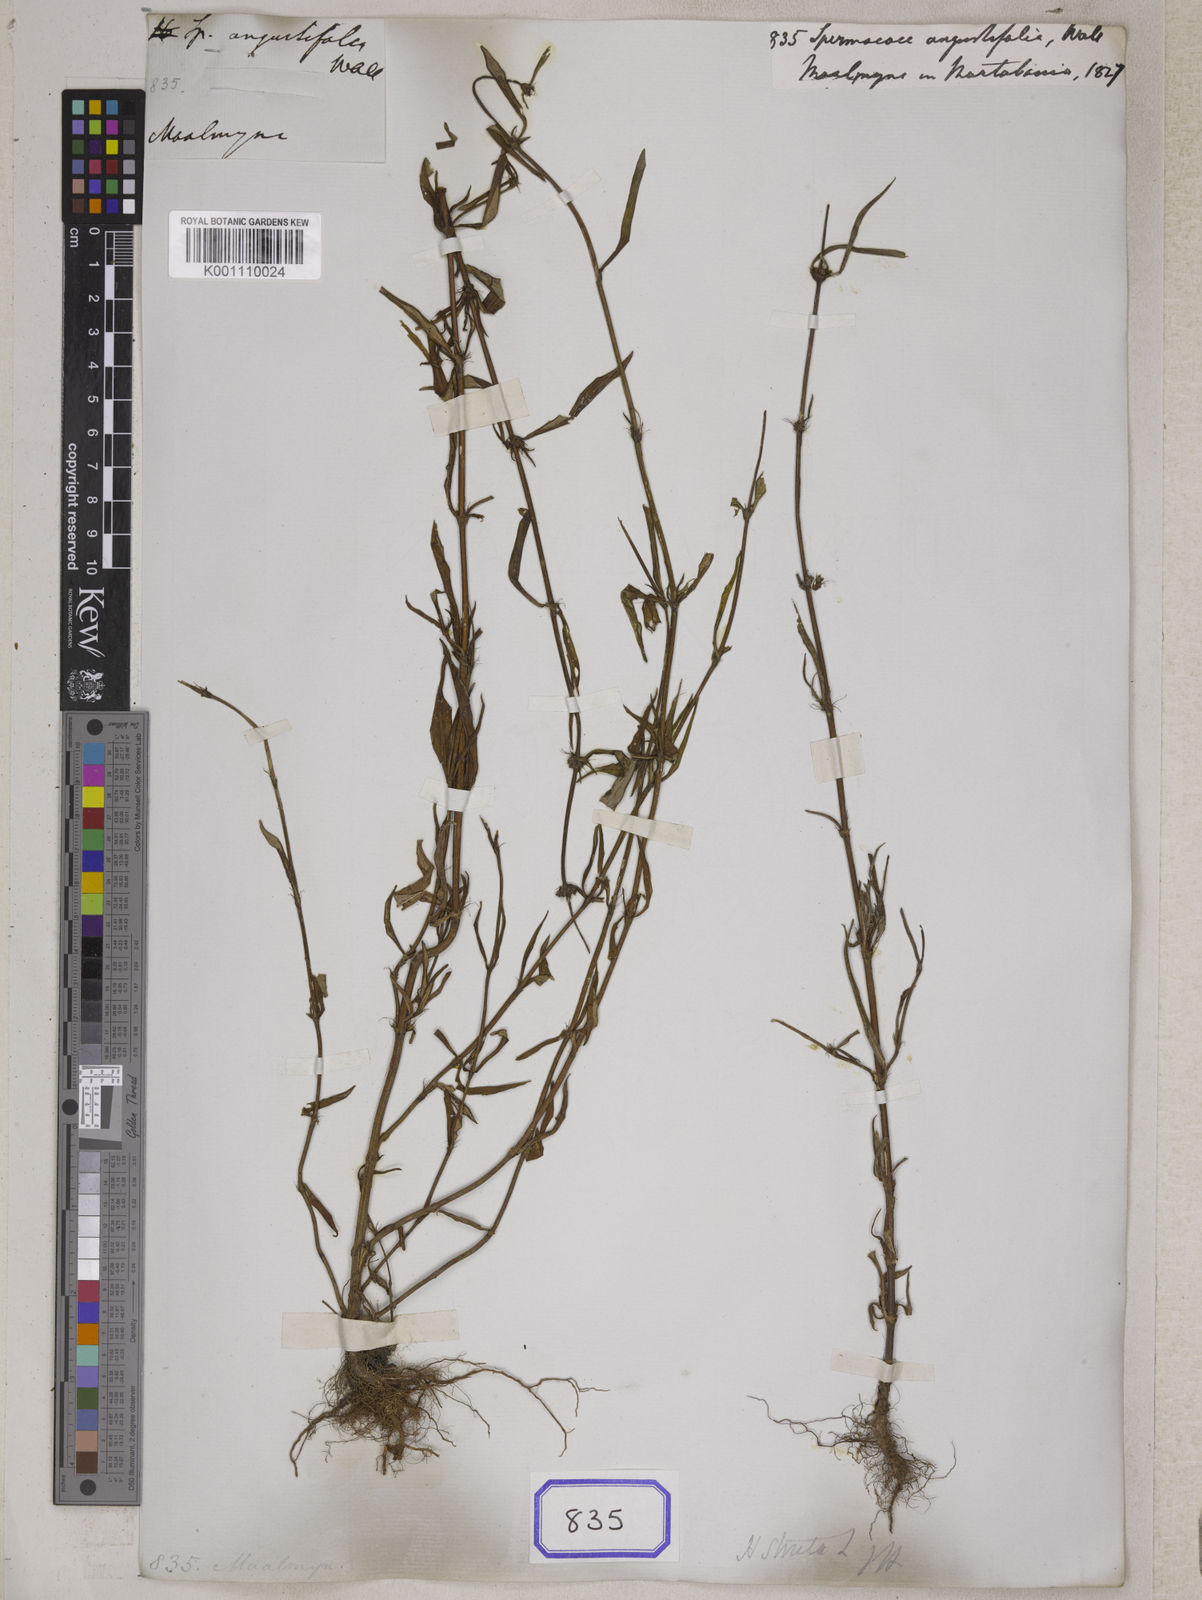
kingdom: Plantae
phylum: Tracheophyta
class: Magnoliopsida
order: Gentianales
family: Rubiaceae
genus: Spermacoce
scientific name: Spermacoce
